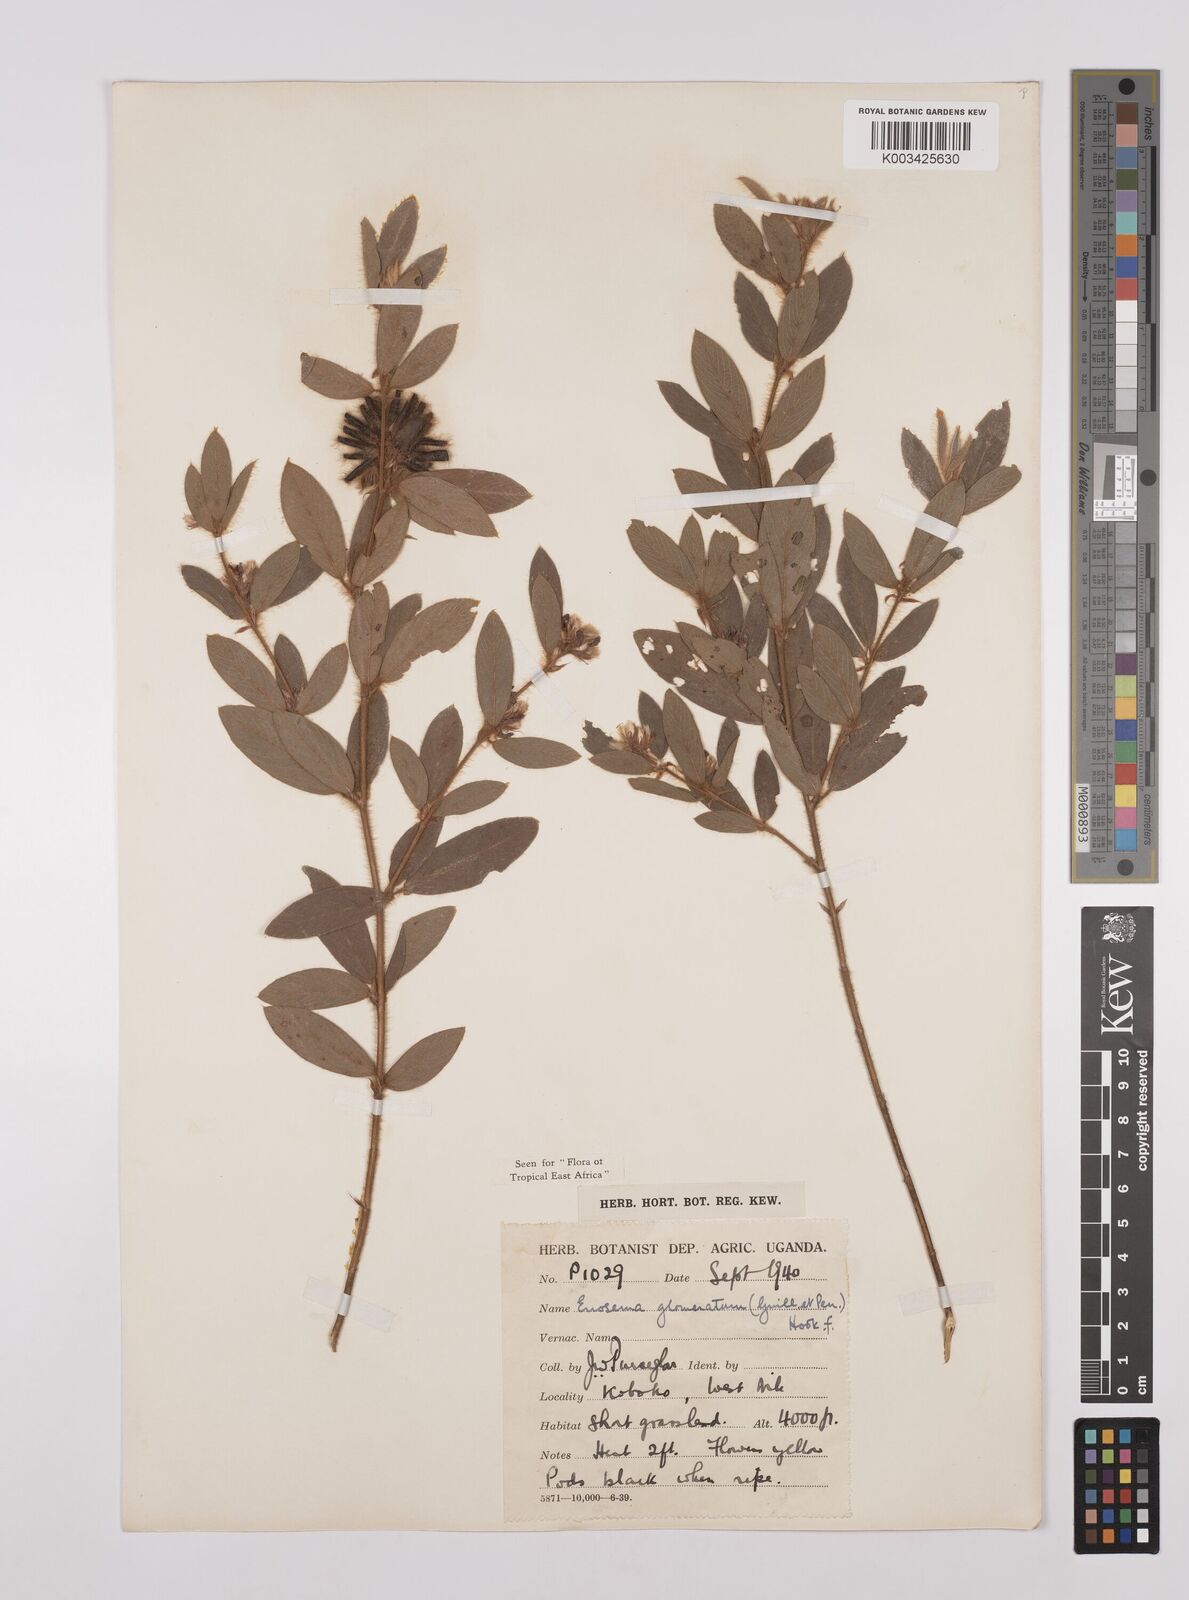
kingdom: Plantae
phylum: Tracheophyta
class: Magnoliopsida
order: Fabales
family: Fabaceae
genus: Eriosema
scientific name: Eriosema glomeratum
